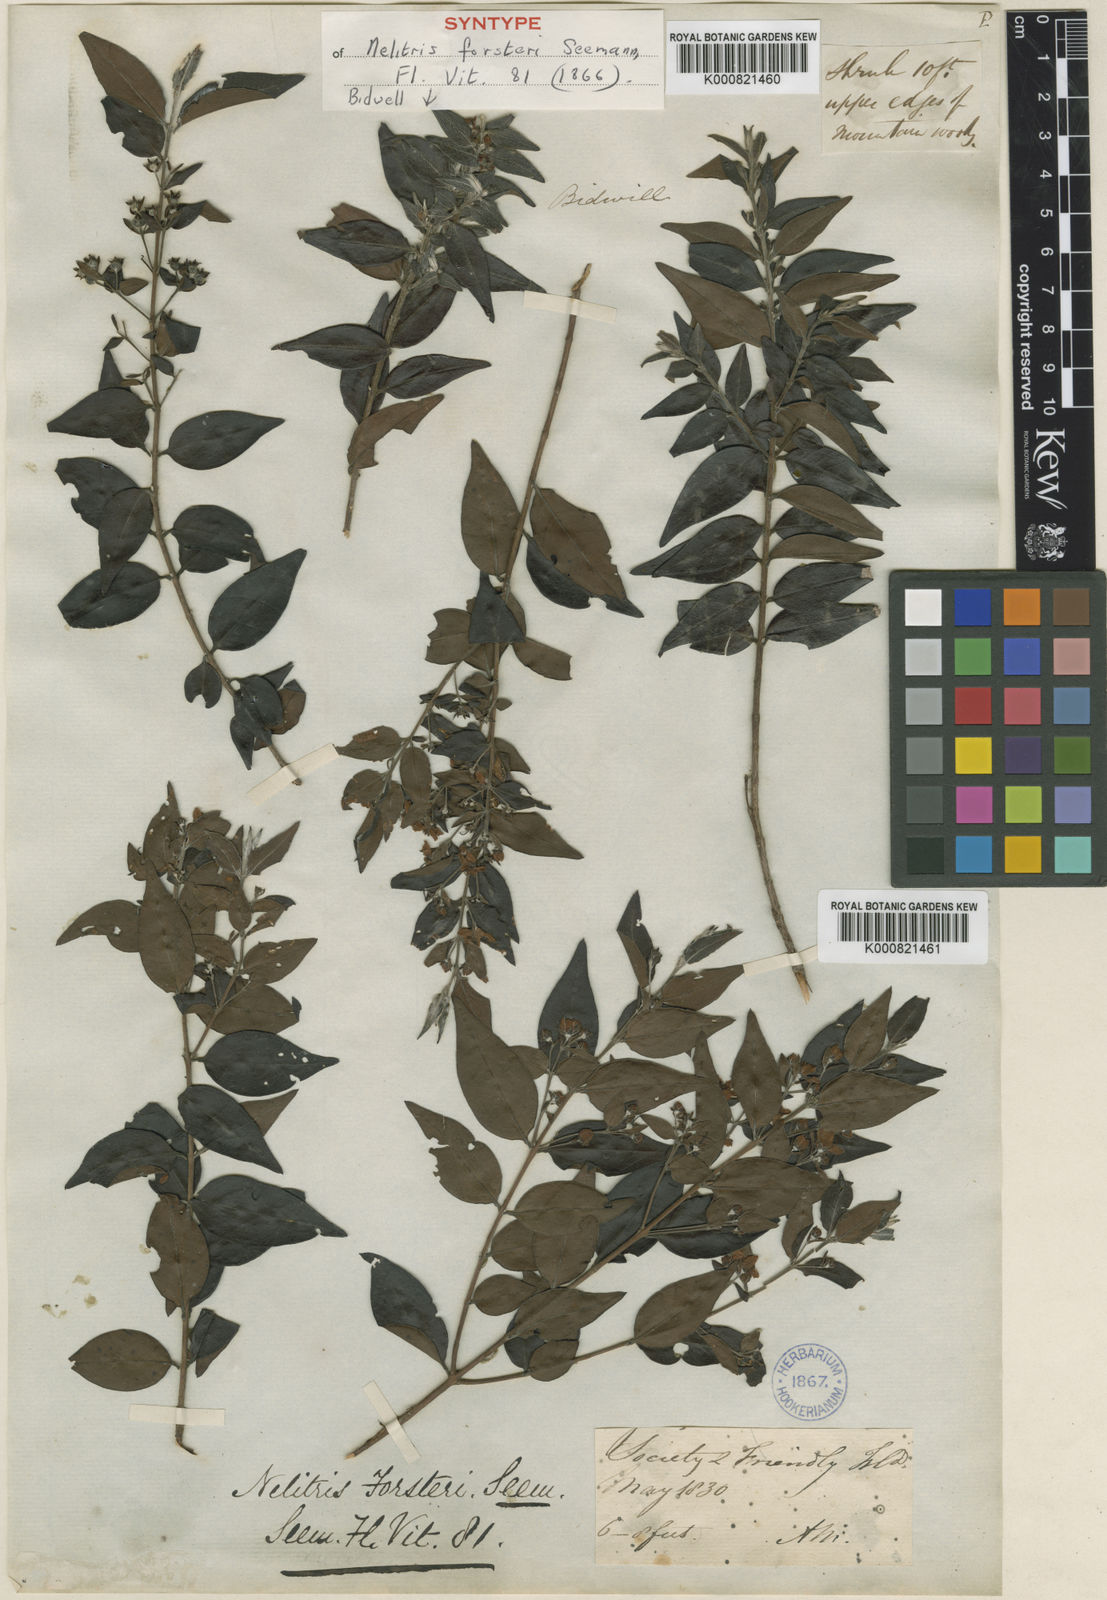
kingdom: Plantae
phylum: Tracheophyta
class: Magnoliopsida
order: Myrtales
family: Myrtaceae
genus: Decaspermum
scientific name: Decaspermum fruticosum
